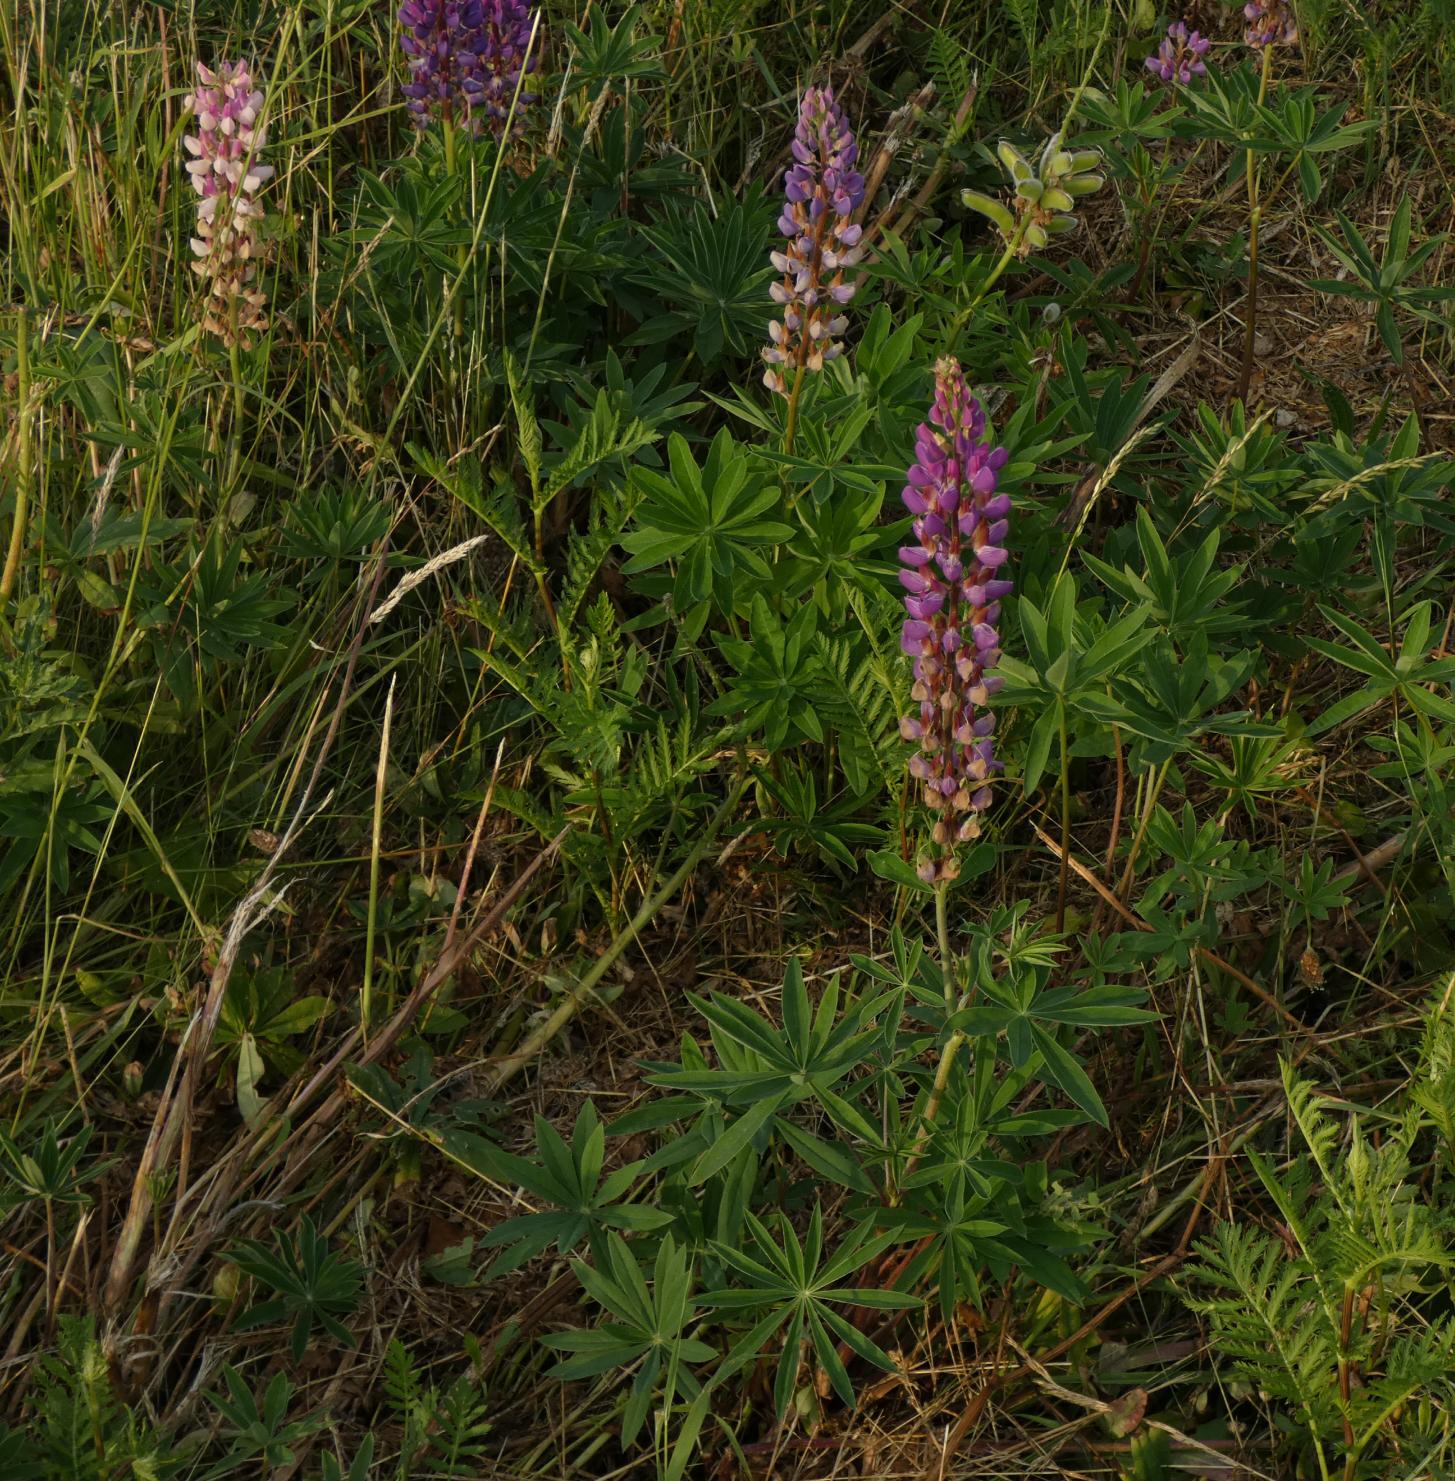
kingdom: Plantae
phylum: Tracheophyta
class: Magnoliopsida
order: Fabales
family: Fabaceae
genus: Lupinus
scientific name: Lupinus polyphyllus
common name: Mangebladet lupin
